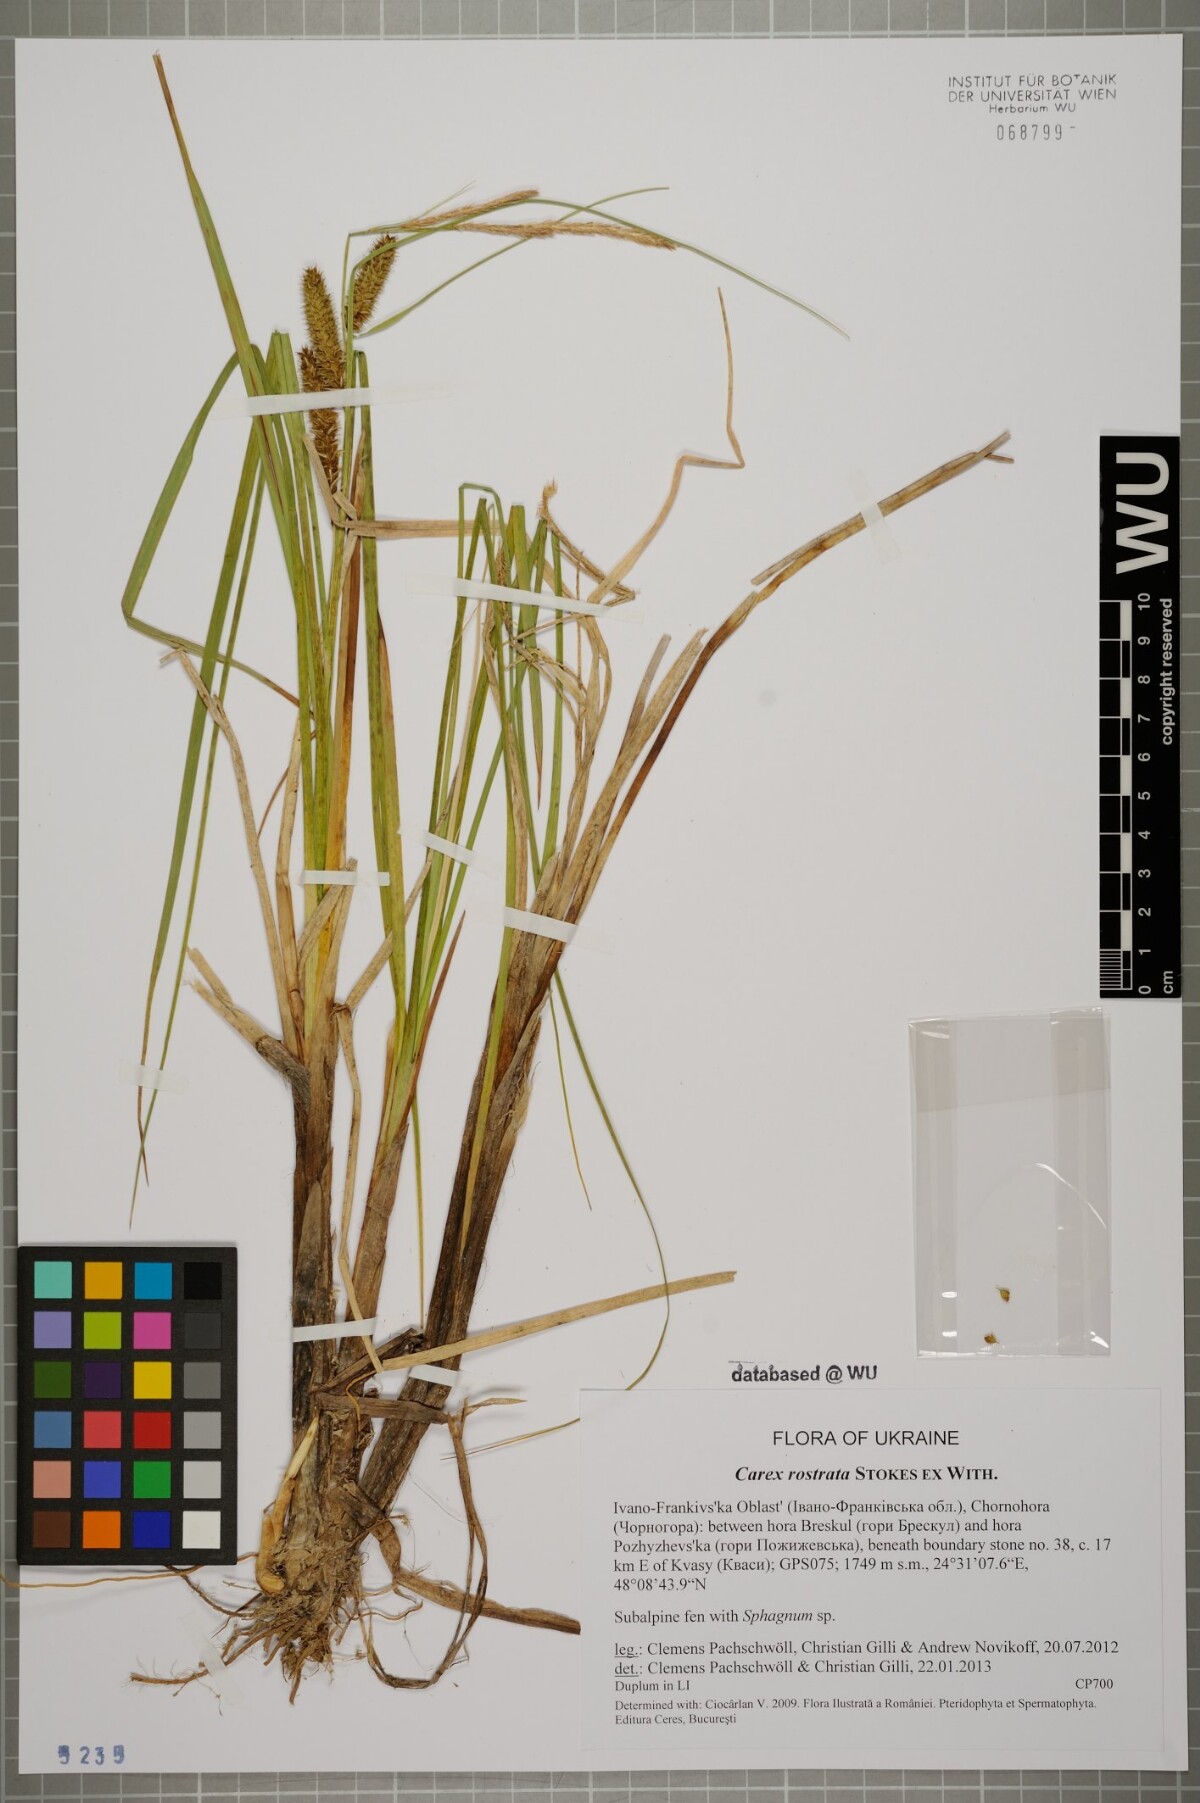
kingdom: Plantae
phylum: Tracheophyta
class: Liliopsida
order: Poales
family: Cyperaceae
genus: Carex
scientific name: Carex rostrata
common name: Bottle sedge
